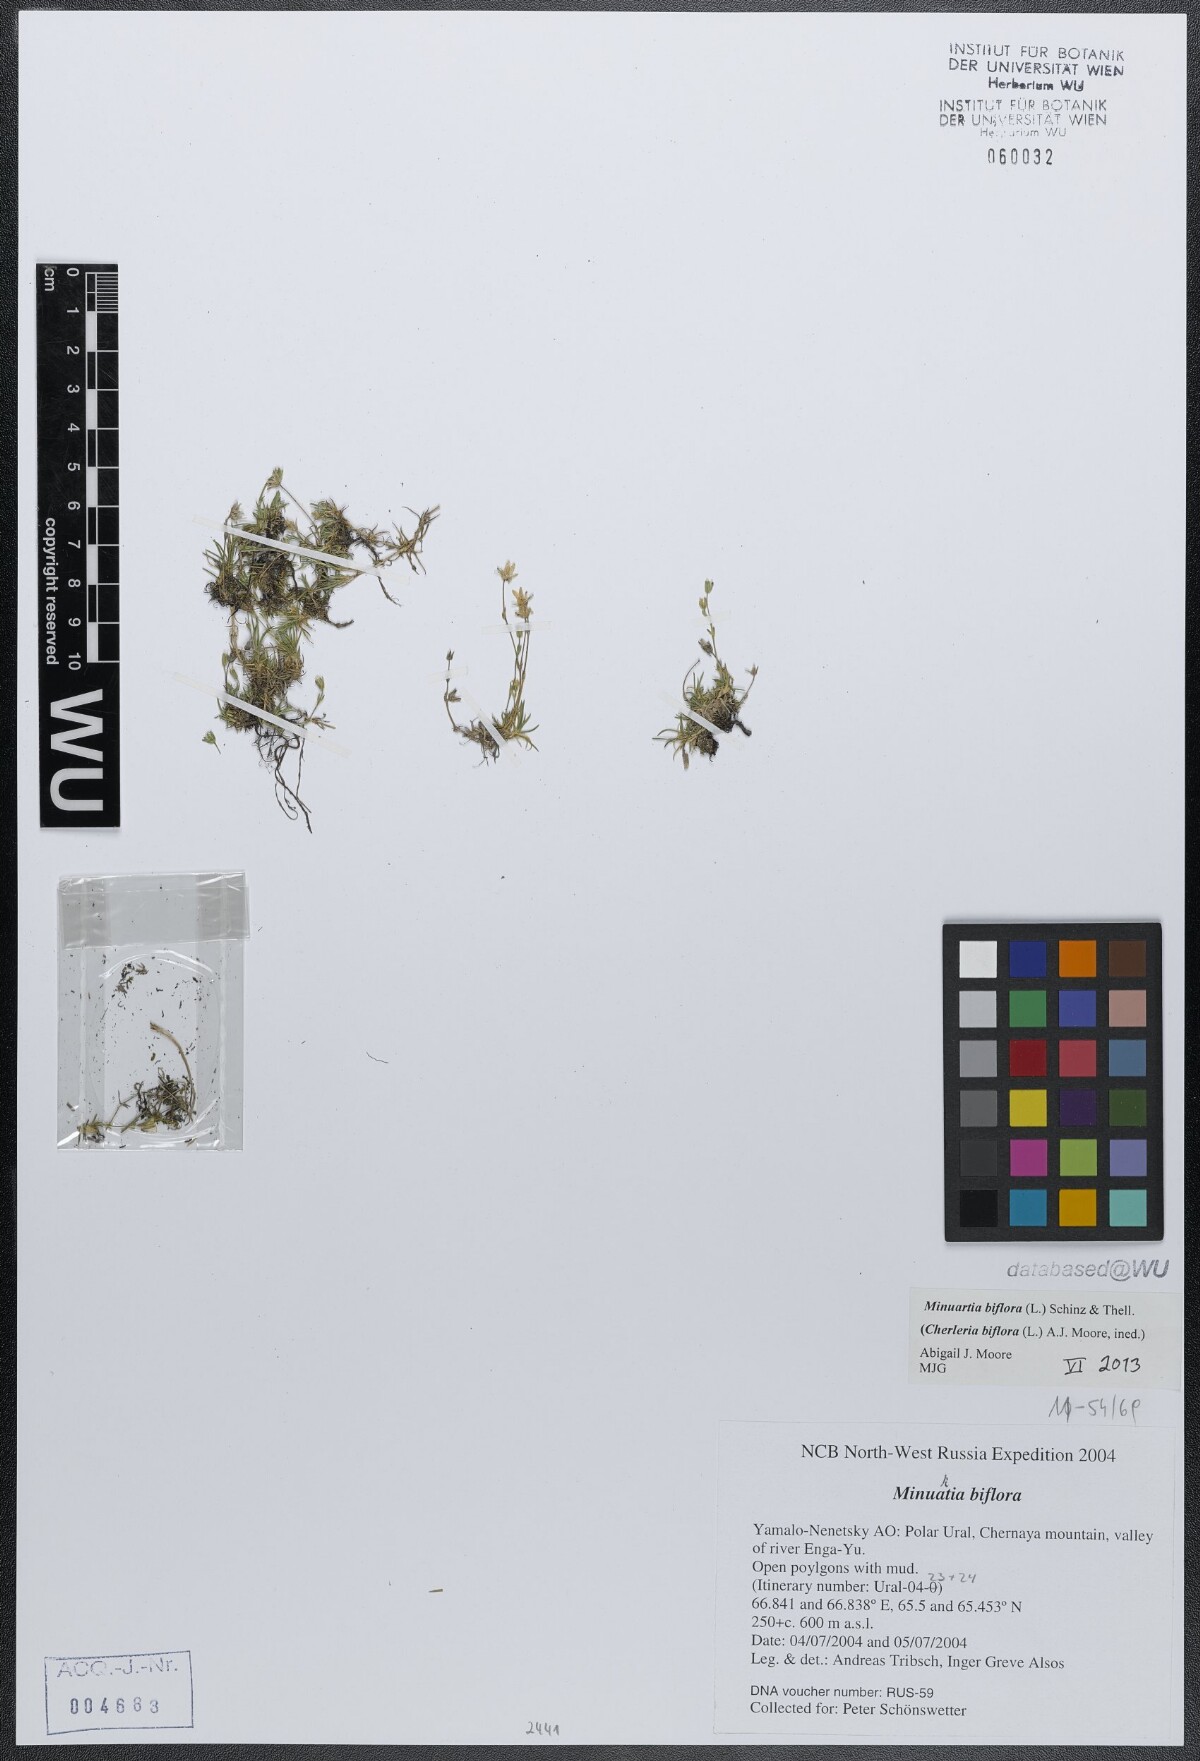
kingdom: Plantae
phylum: Tracheophyta
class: Magnoliopsida
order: Caryophyllales
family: Caryophyllaceae
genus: Cherleria
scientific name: Cherleria biflora
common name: Mountain sandwort
